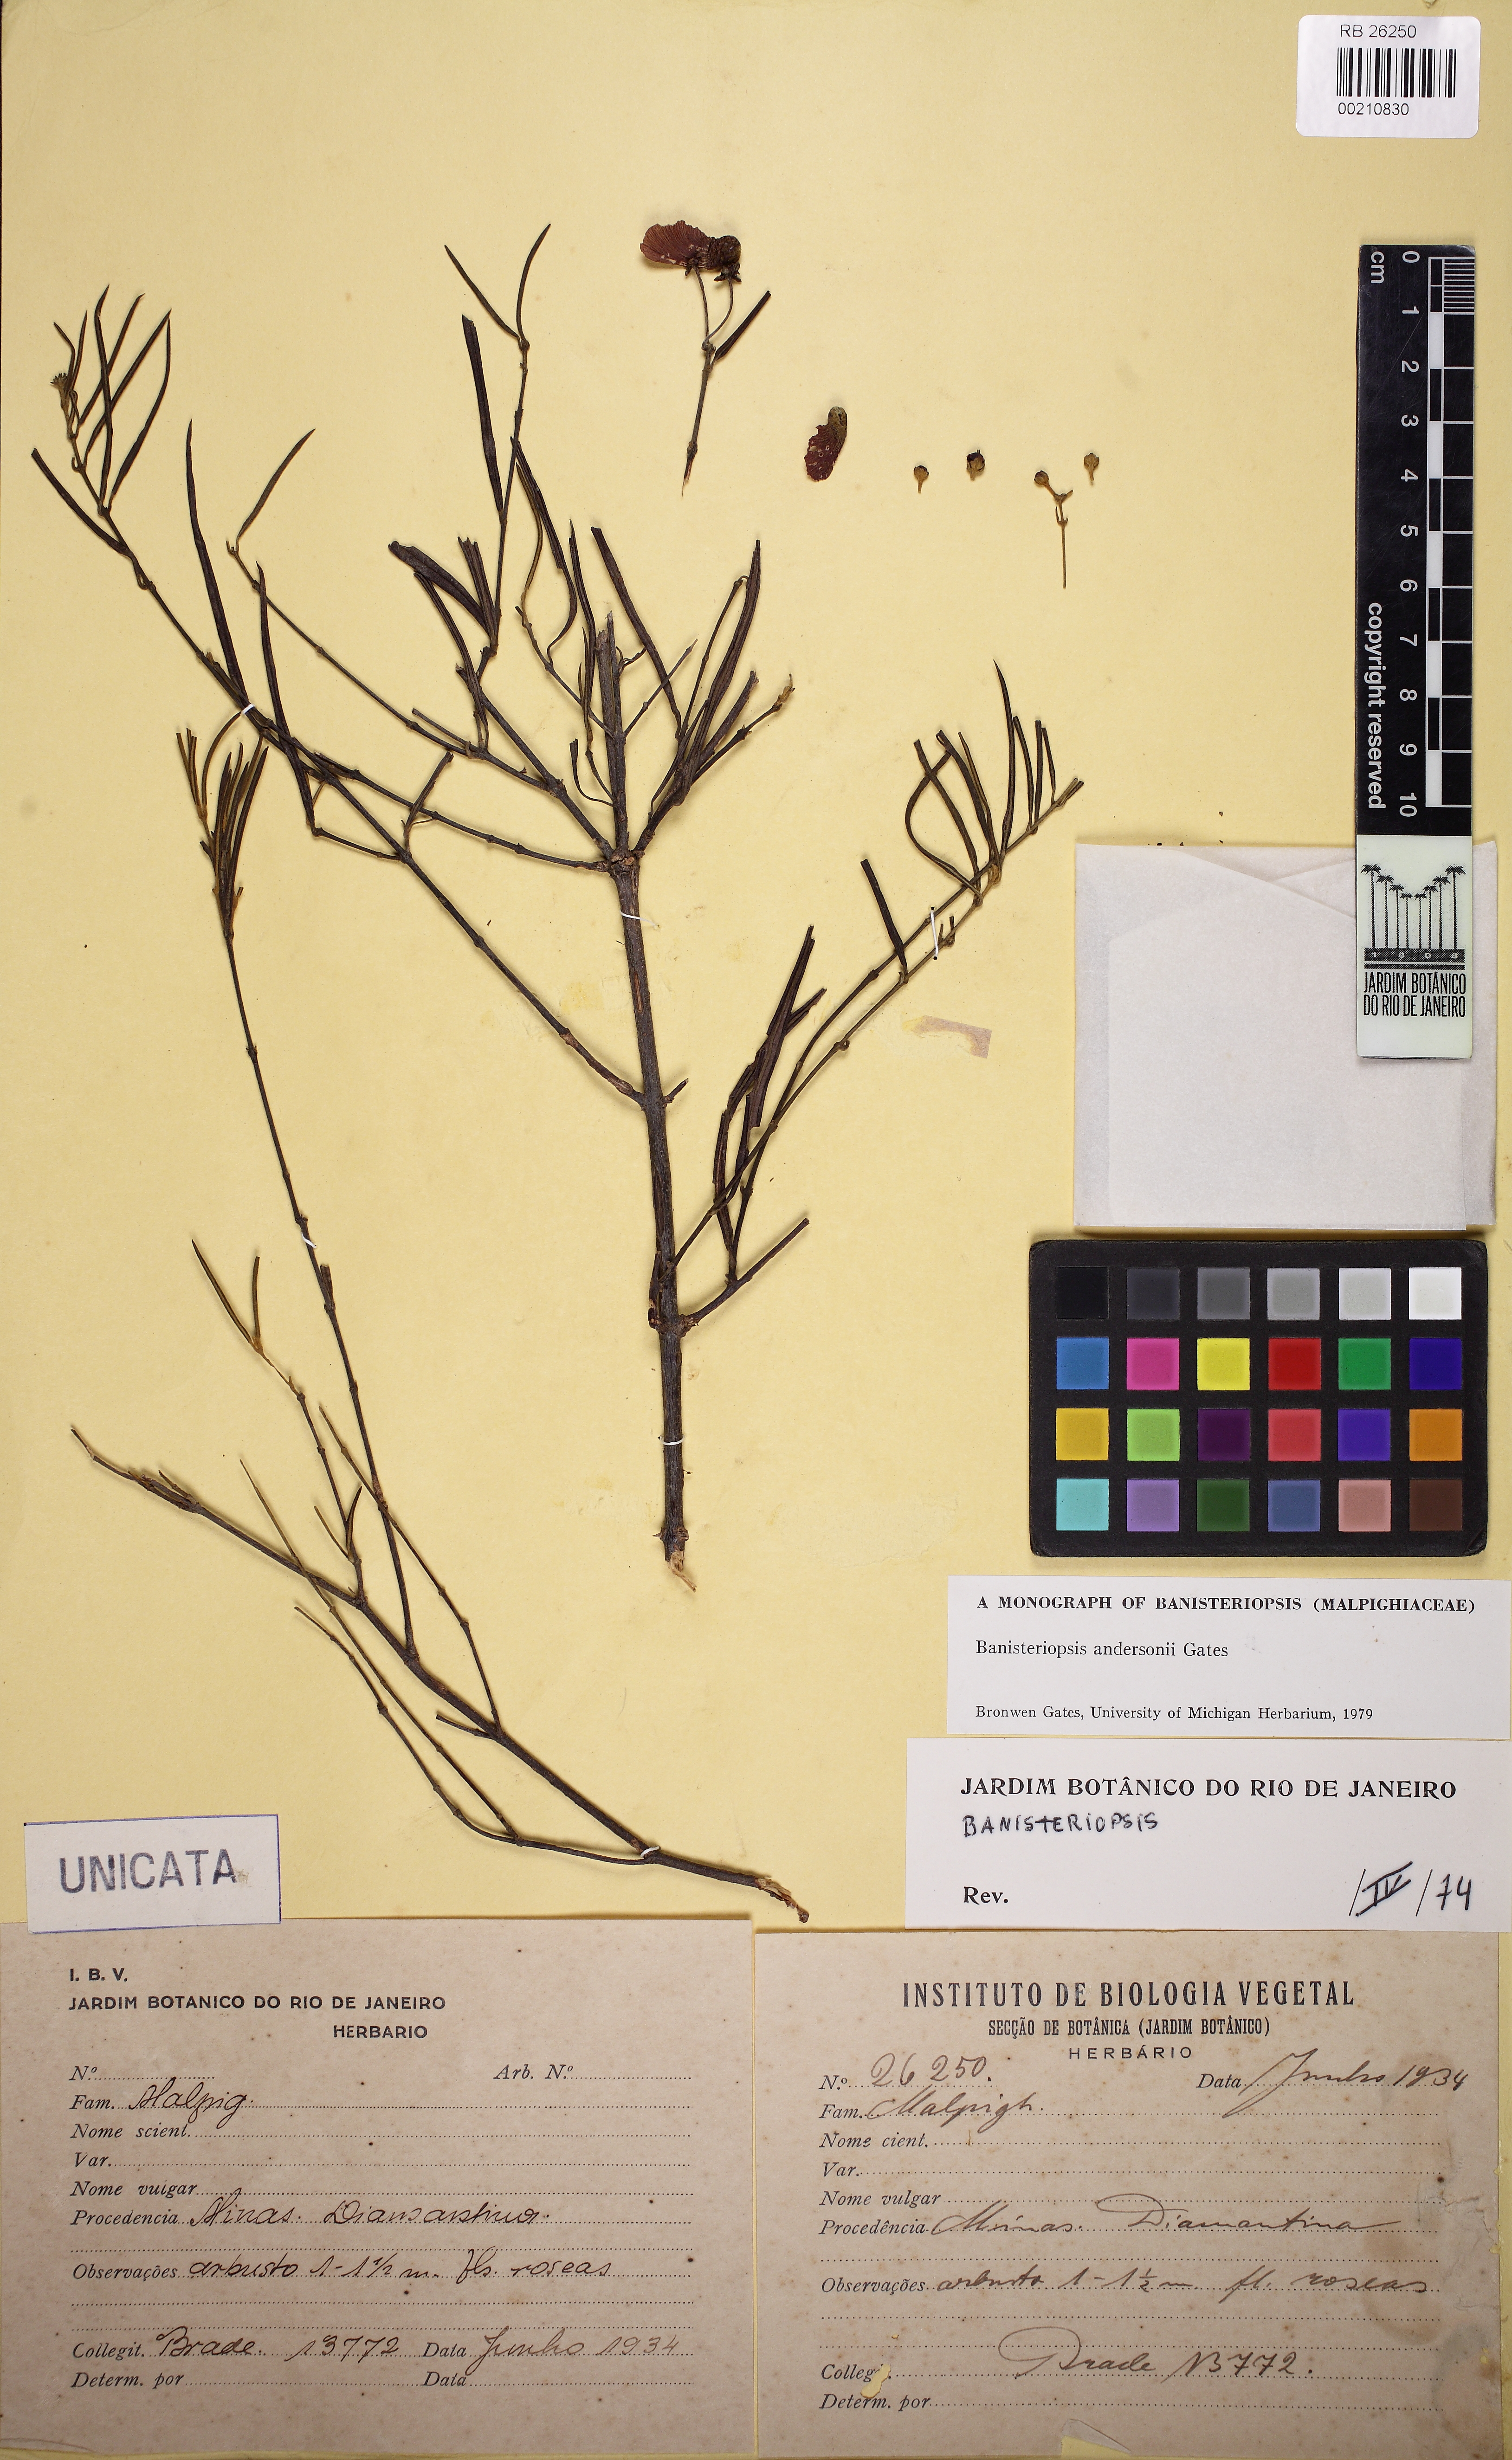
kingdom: Plantae
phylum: Tracheophyta
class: Magnoliopsida
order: Malpighiales
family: Malpighiaceae
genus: Banisteriopsis
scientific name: Banisteriopsis andersonii
